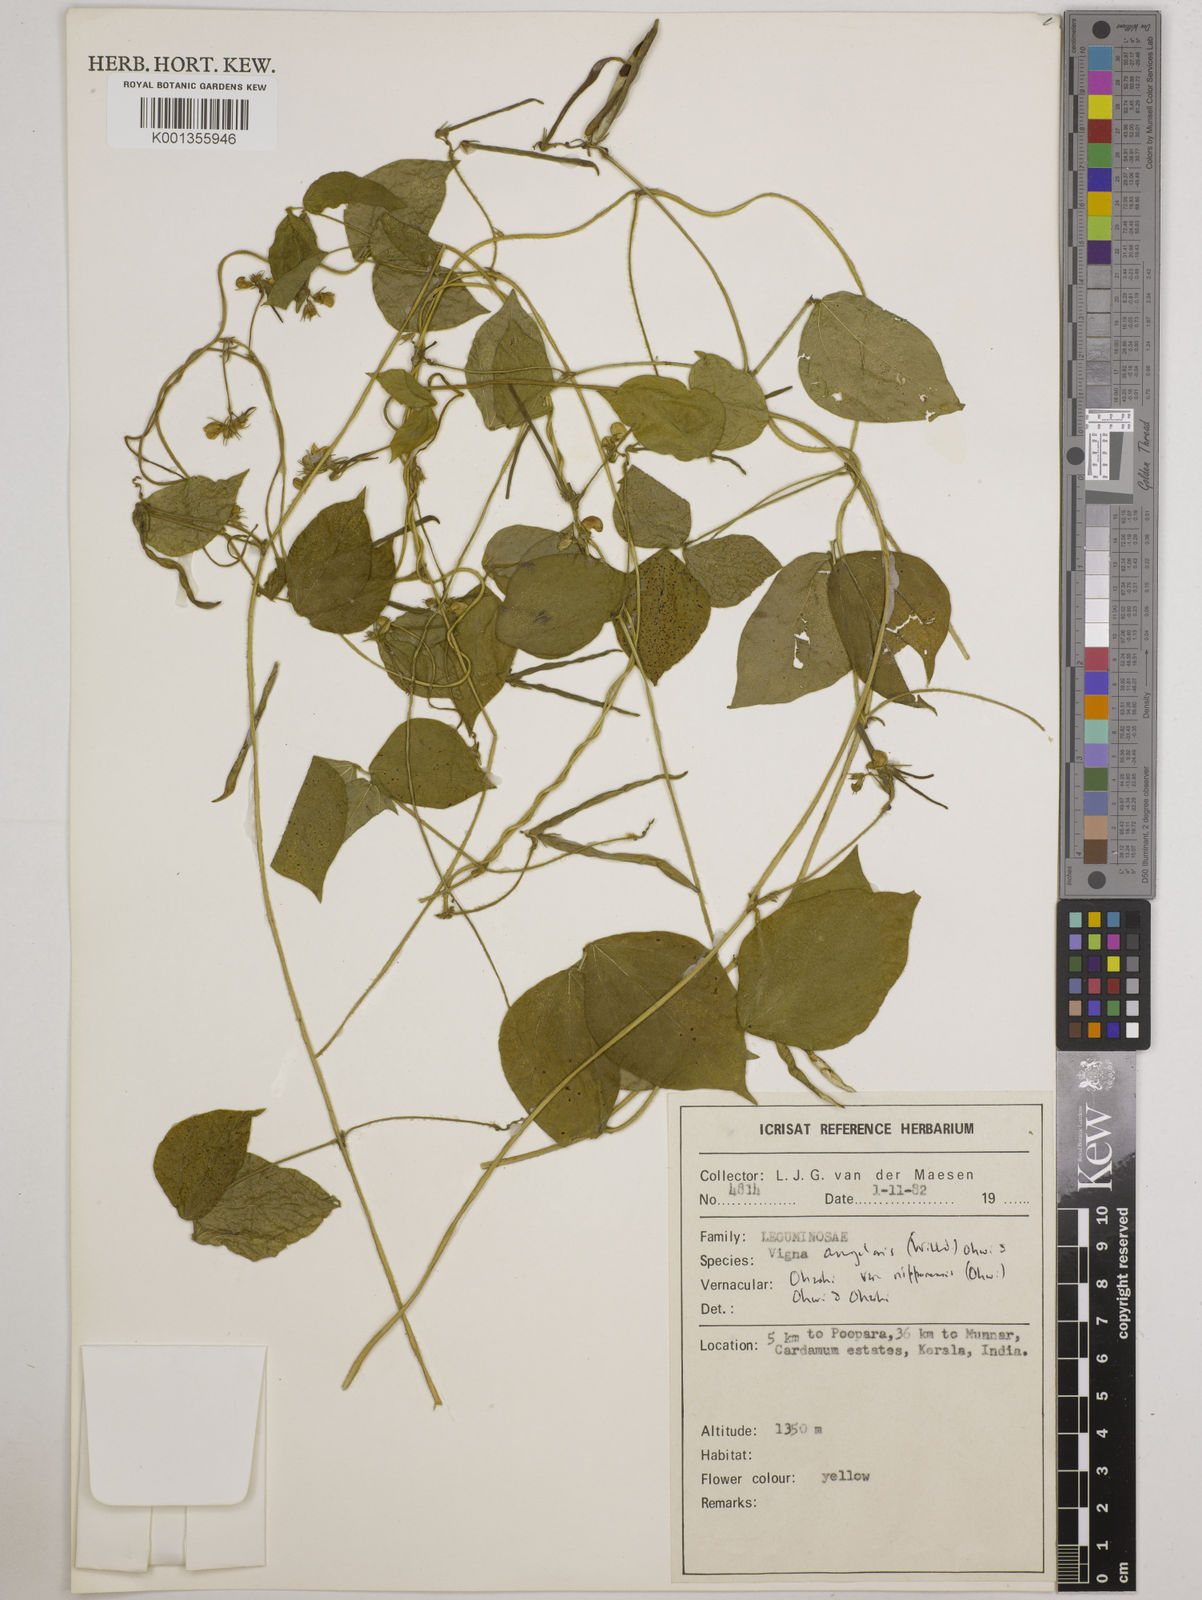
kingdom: Plantae
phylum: Tracheophyta
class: Magnoliopsida
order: Fabales
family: Fabaceae
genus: Vigna
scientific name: Vigna
